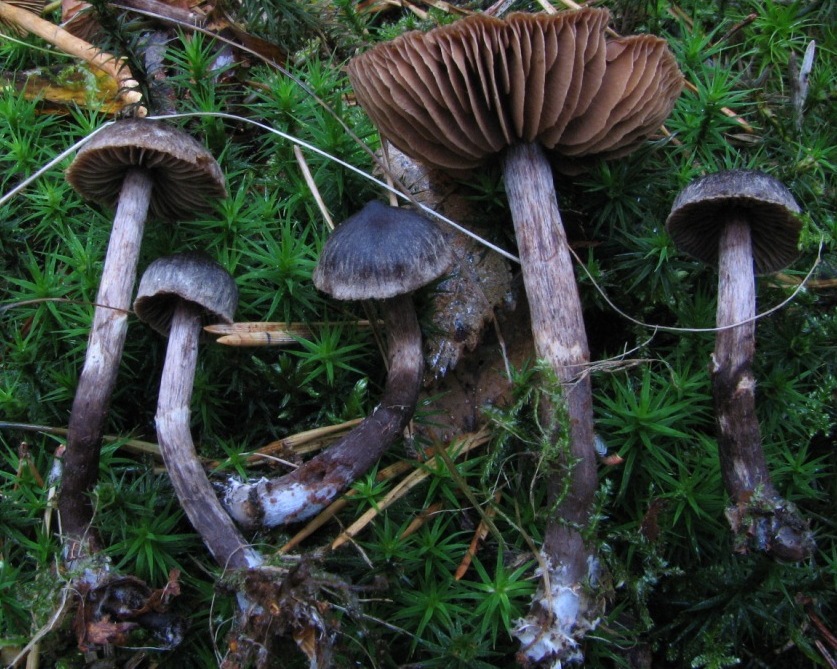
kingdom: Fungi
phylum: Basidiomycota
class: Agaricomycetes
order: Agaricales
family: Cortinariaceae
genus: Cortinarius
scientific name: Cortinarius umbrinolens
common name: mørk slørhat
